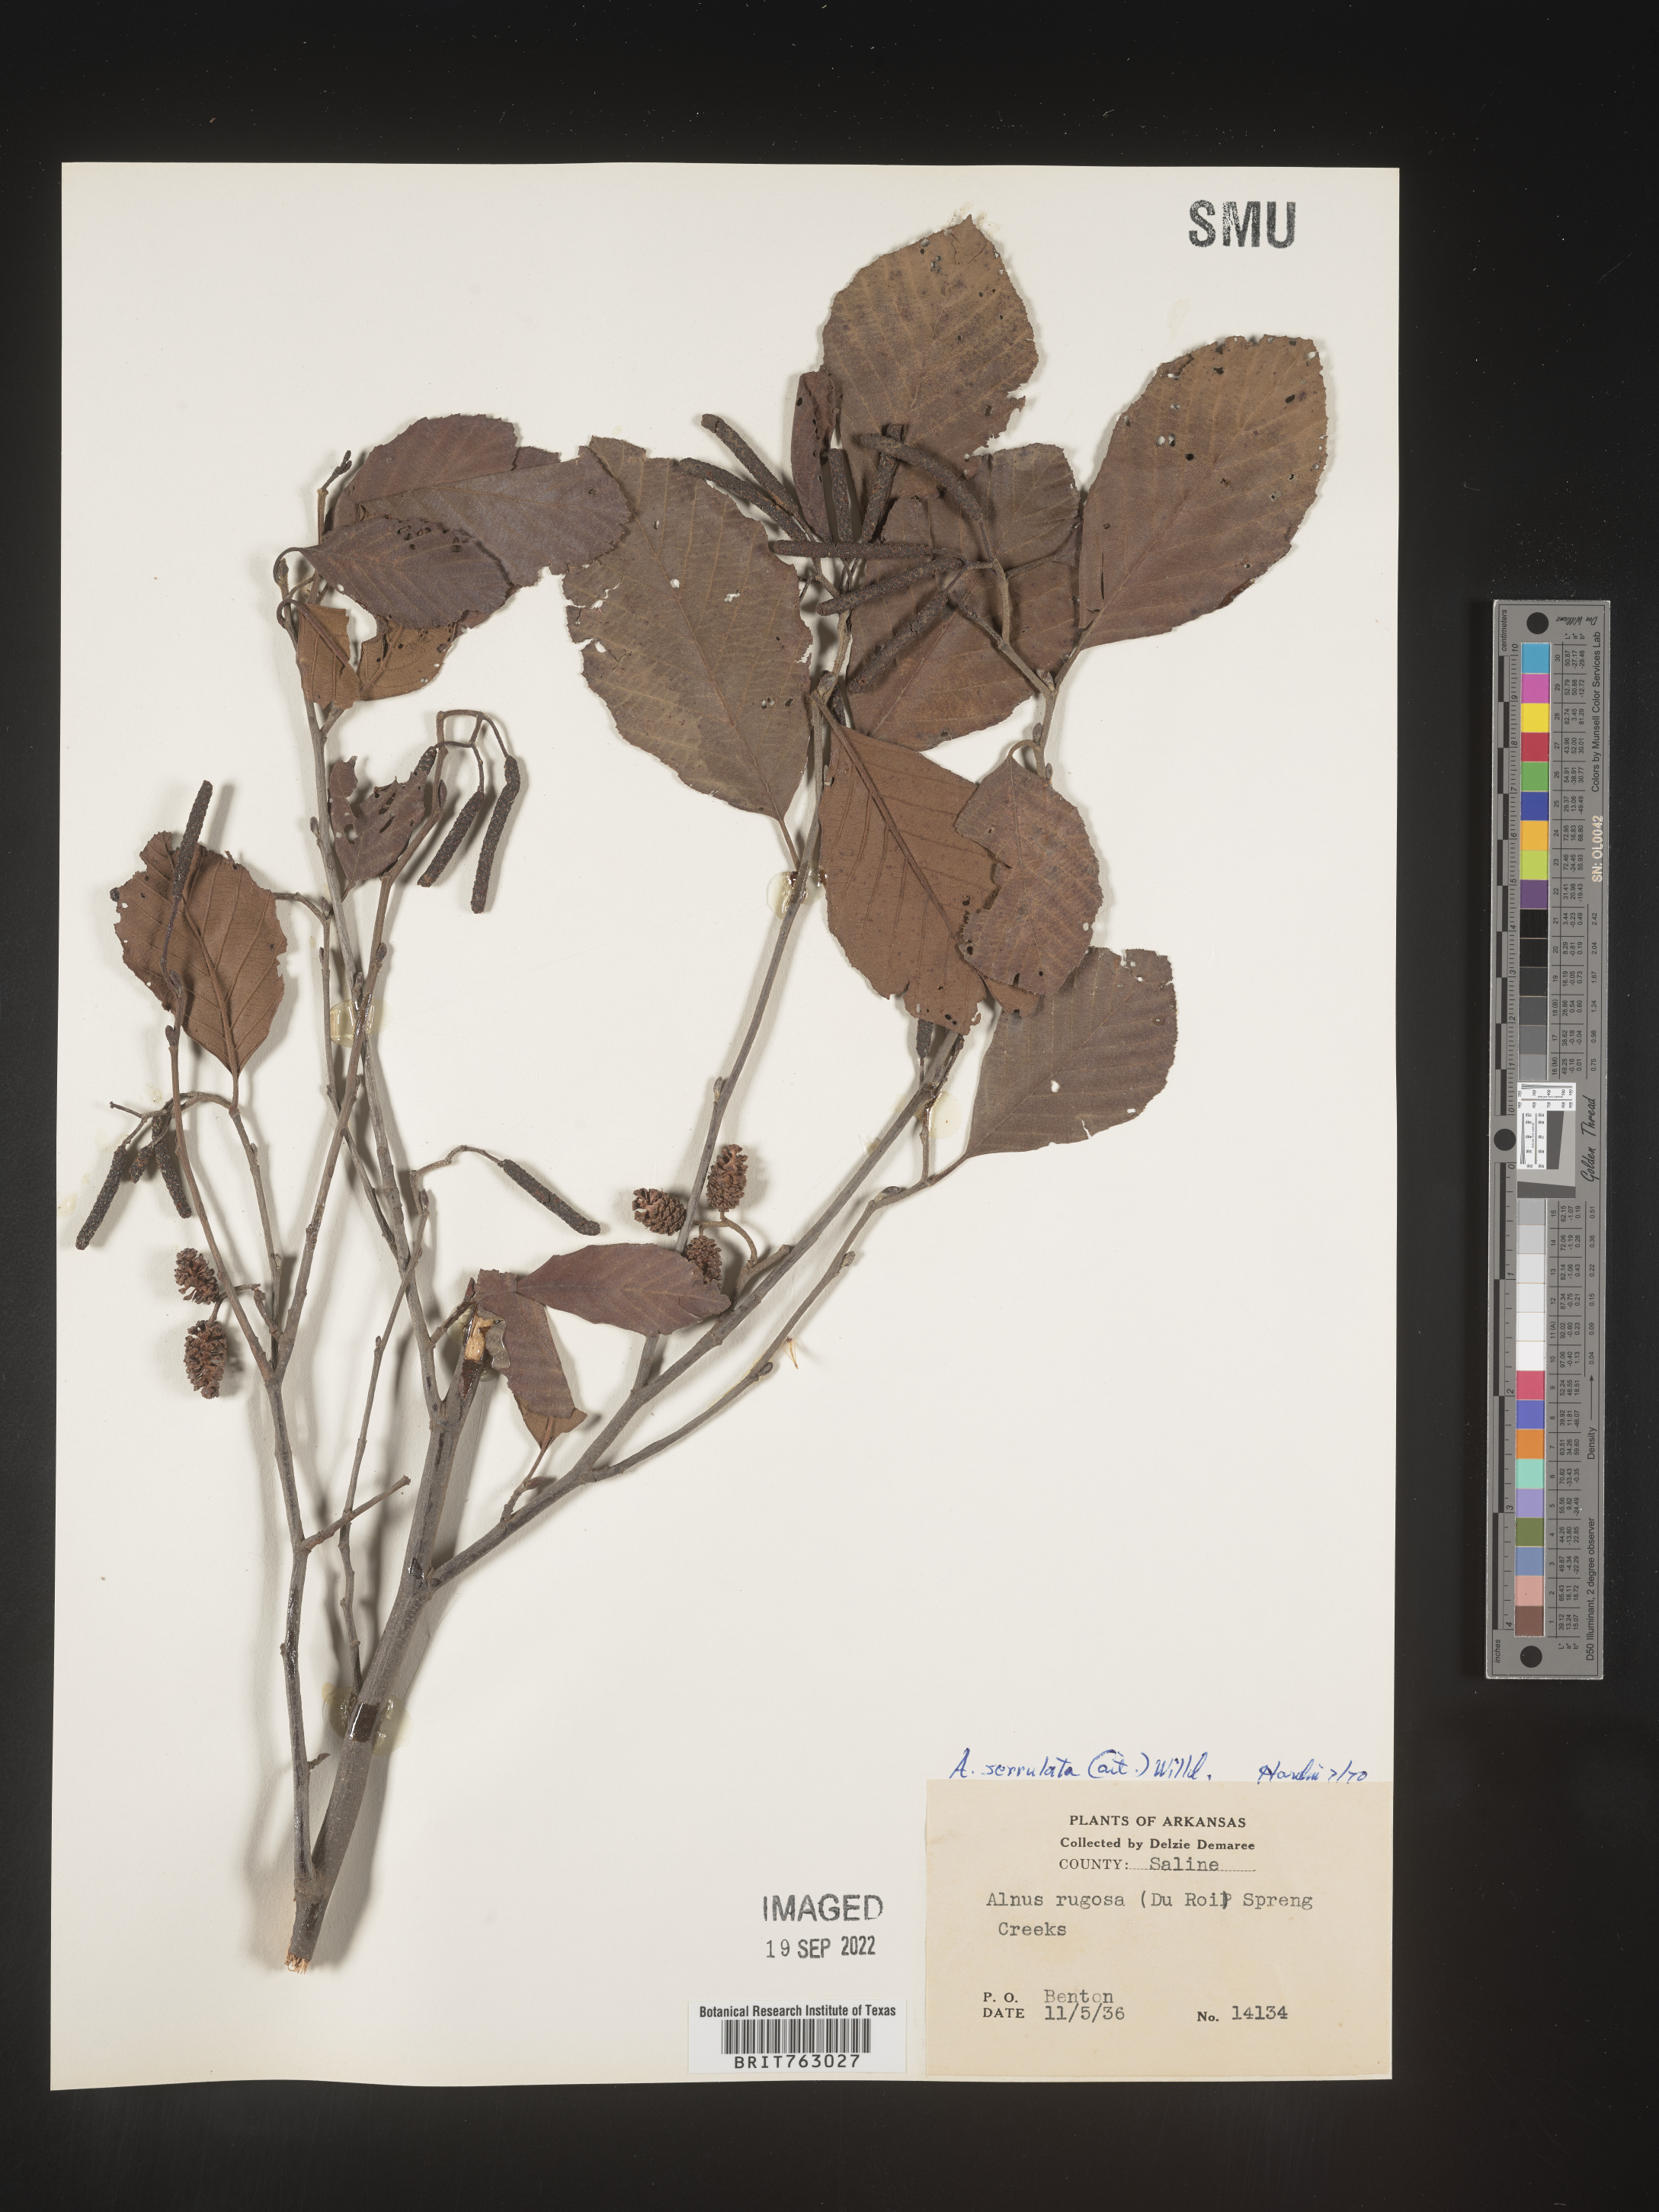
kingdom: Plantae
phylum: Tracheophyta
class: Magnoliopsida
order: Fagales
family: Betulaceae
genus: Alnus
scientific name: Alnus serrulata
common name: Hazel alder
